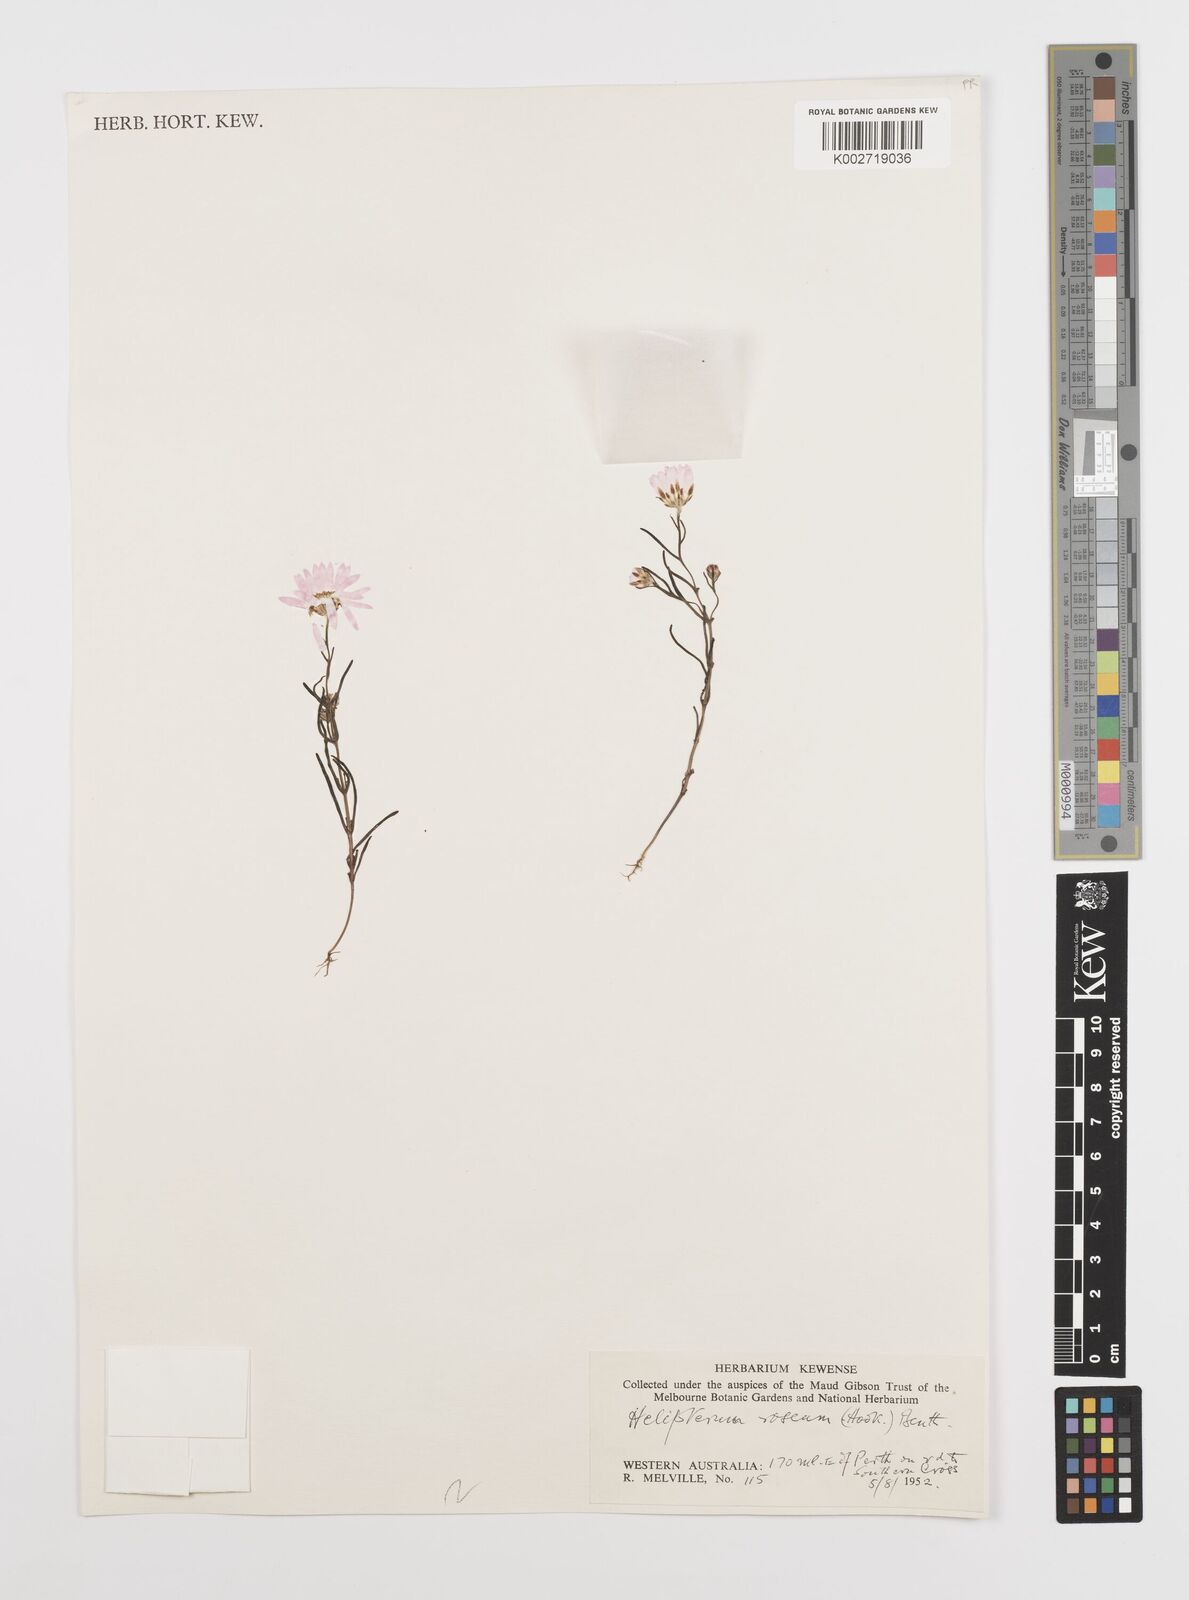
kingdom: Plantae
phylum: Tracheophyta
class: Magnoliopsida
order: Asterales
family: Asteraceae
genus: Rhodanthe
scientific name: Rhodanthe chlorocephala
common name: Rosy sunray
